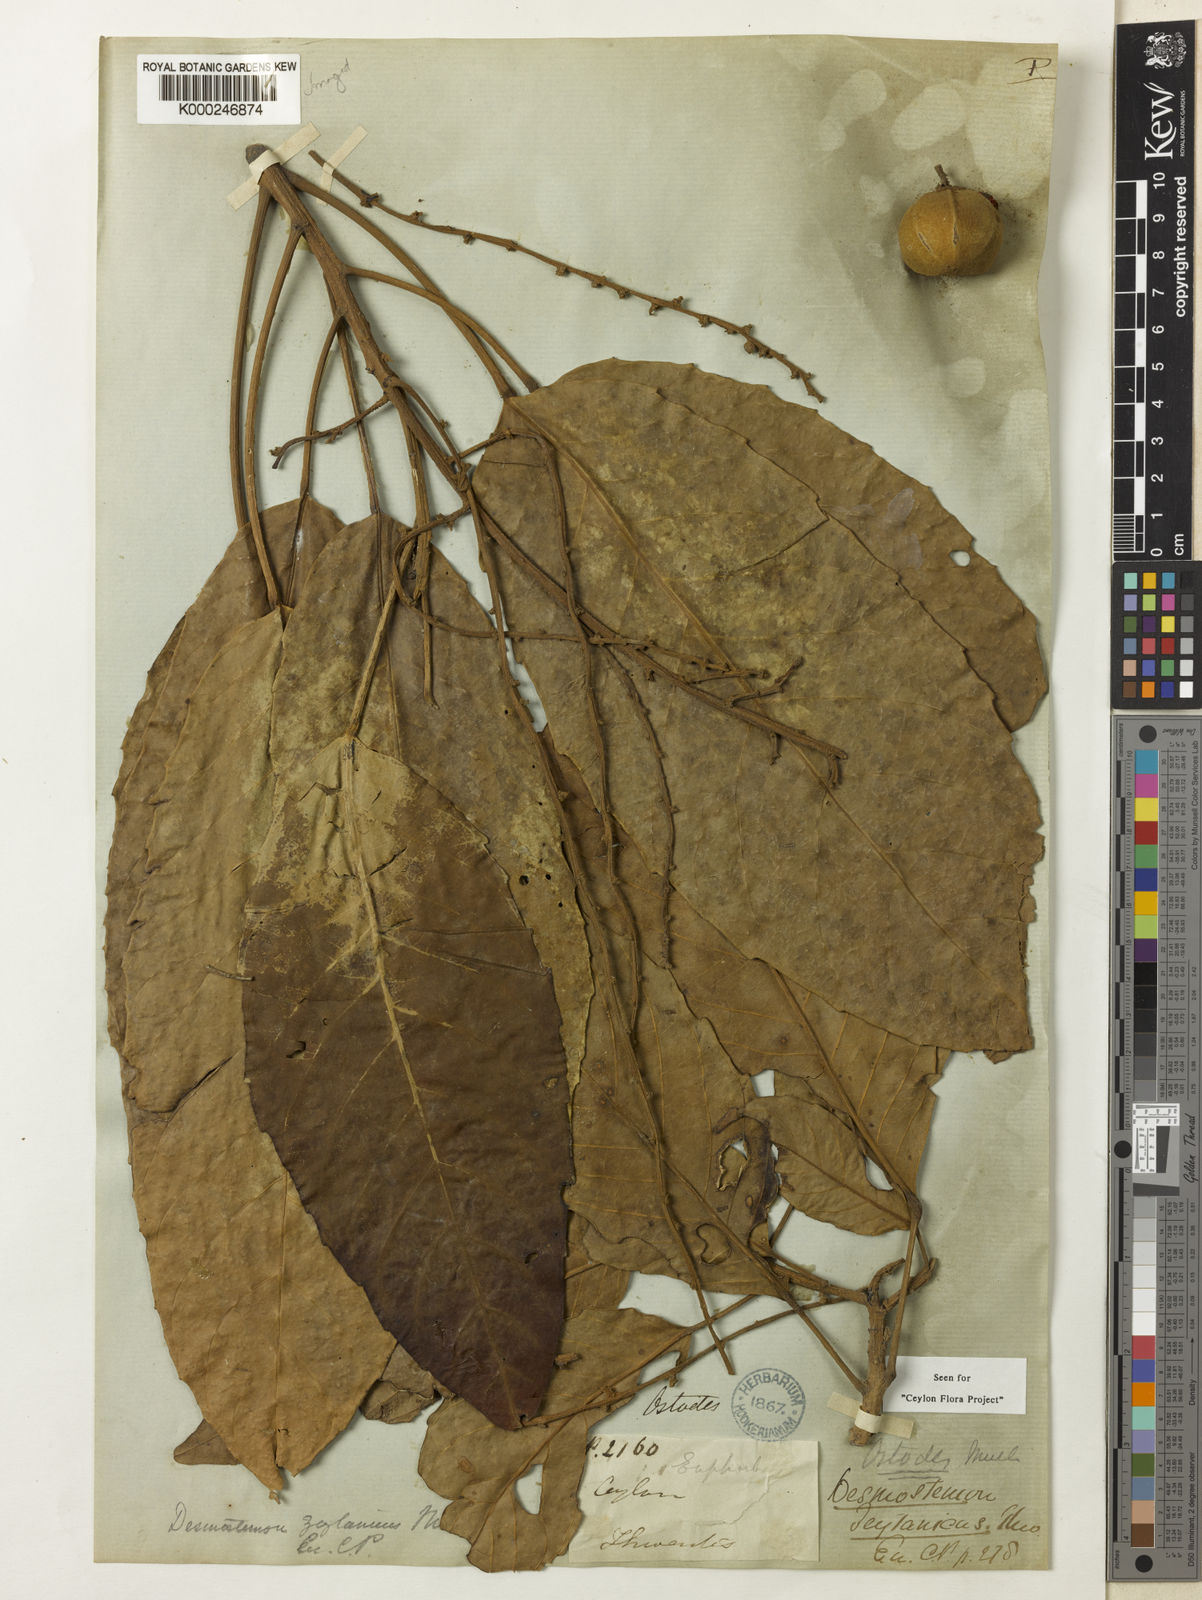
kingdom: Plantae
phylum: Tracheophyta
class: Magnoliopsida
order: Malpighiales
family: Euphorbiaceae
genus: Paracroton
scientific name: Paracroton
